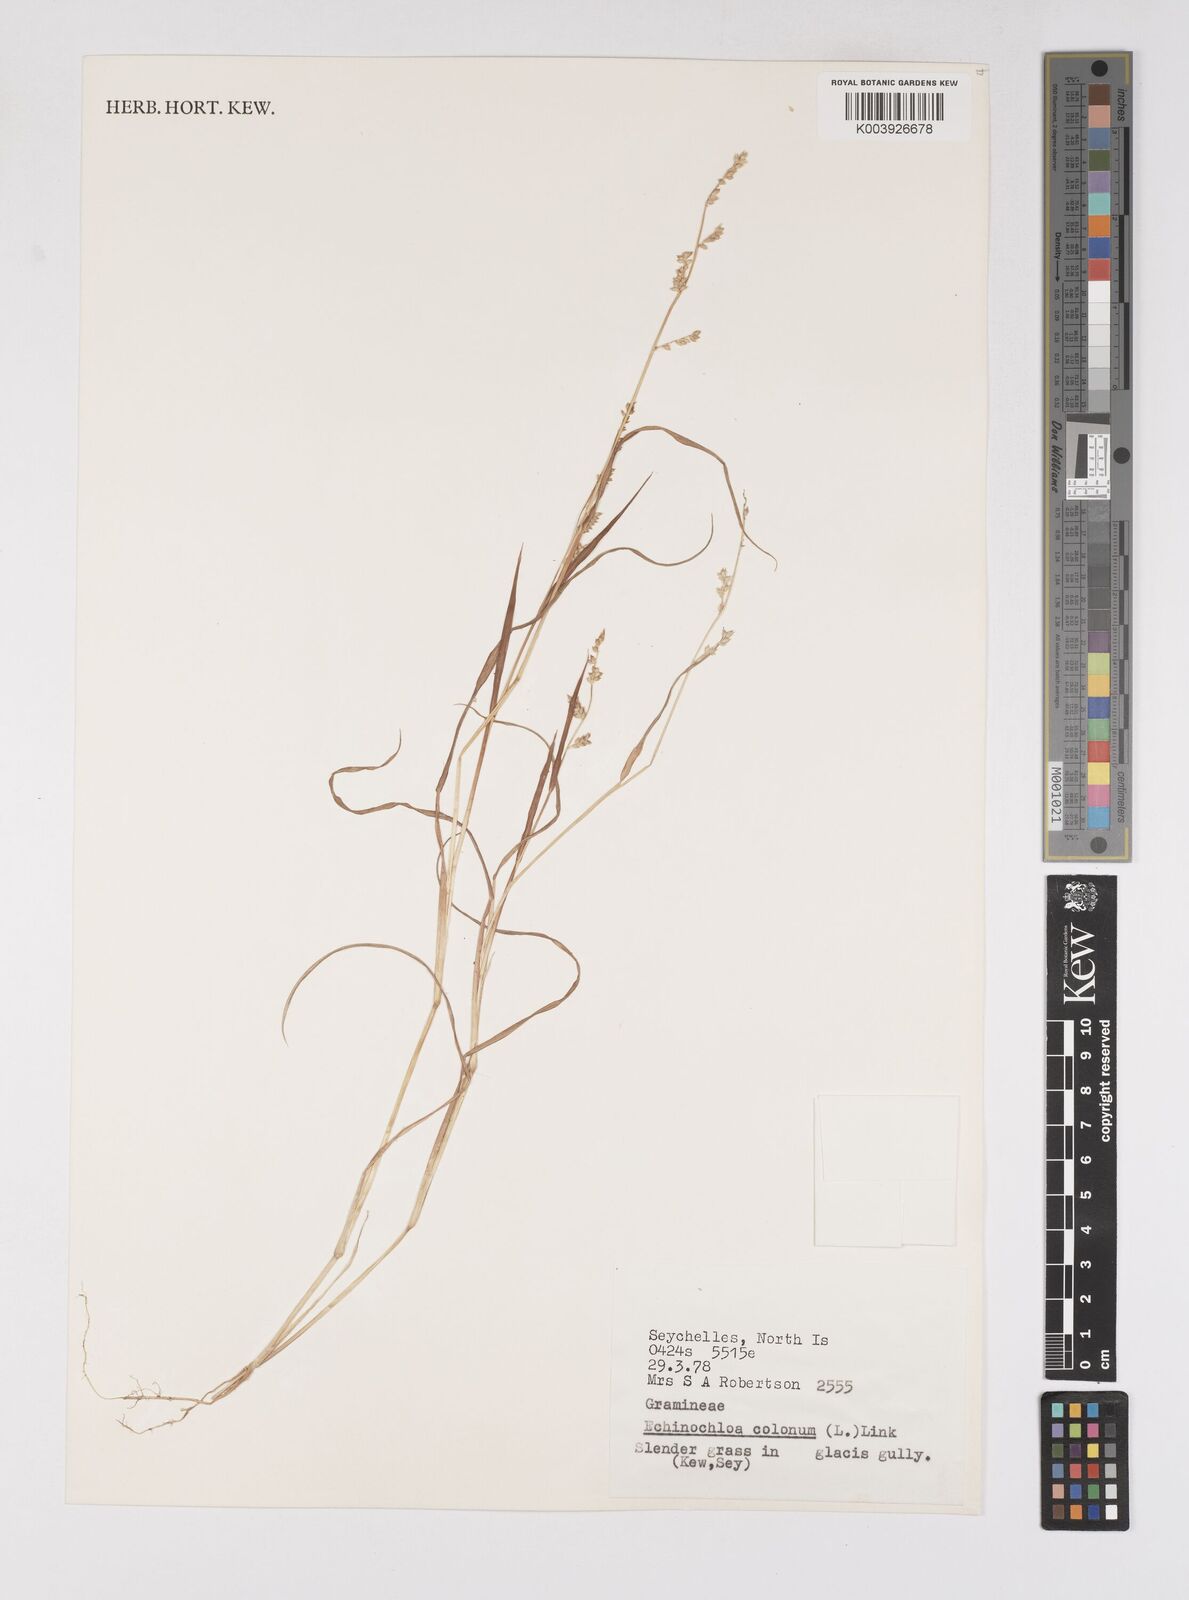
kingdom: Plantae
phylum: Tracheophyta
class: Liliopsida
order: Poales
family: Poaceae
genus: Echinochloa
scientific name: Echinochloa colonum
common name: Jungle rice
